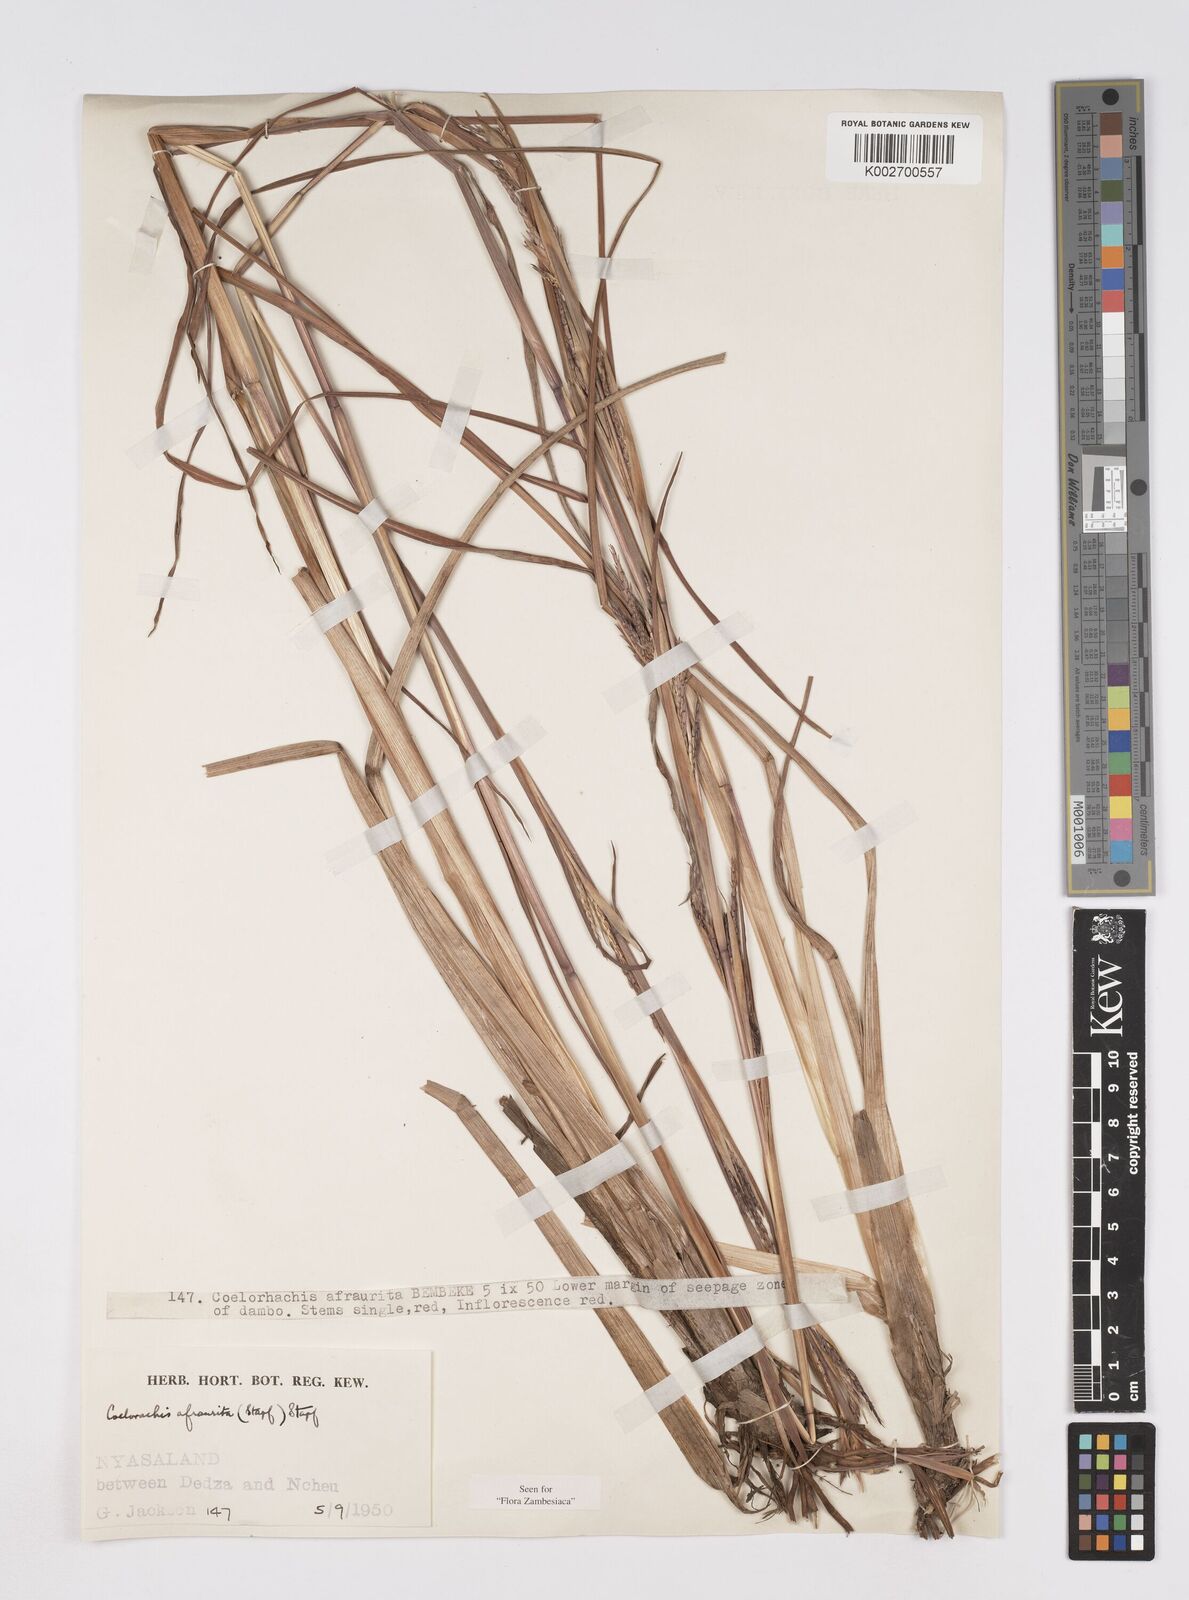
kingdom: Plantae
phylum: Tracheophyta
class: Liliopsida
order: Poales
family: Poaceae
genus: Rottboellia
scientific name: Rottboellia afraurita
